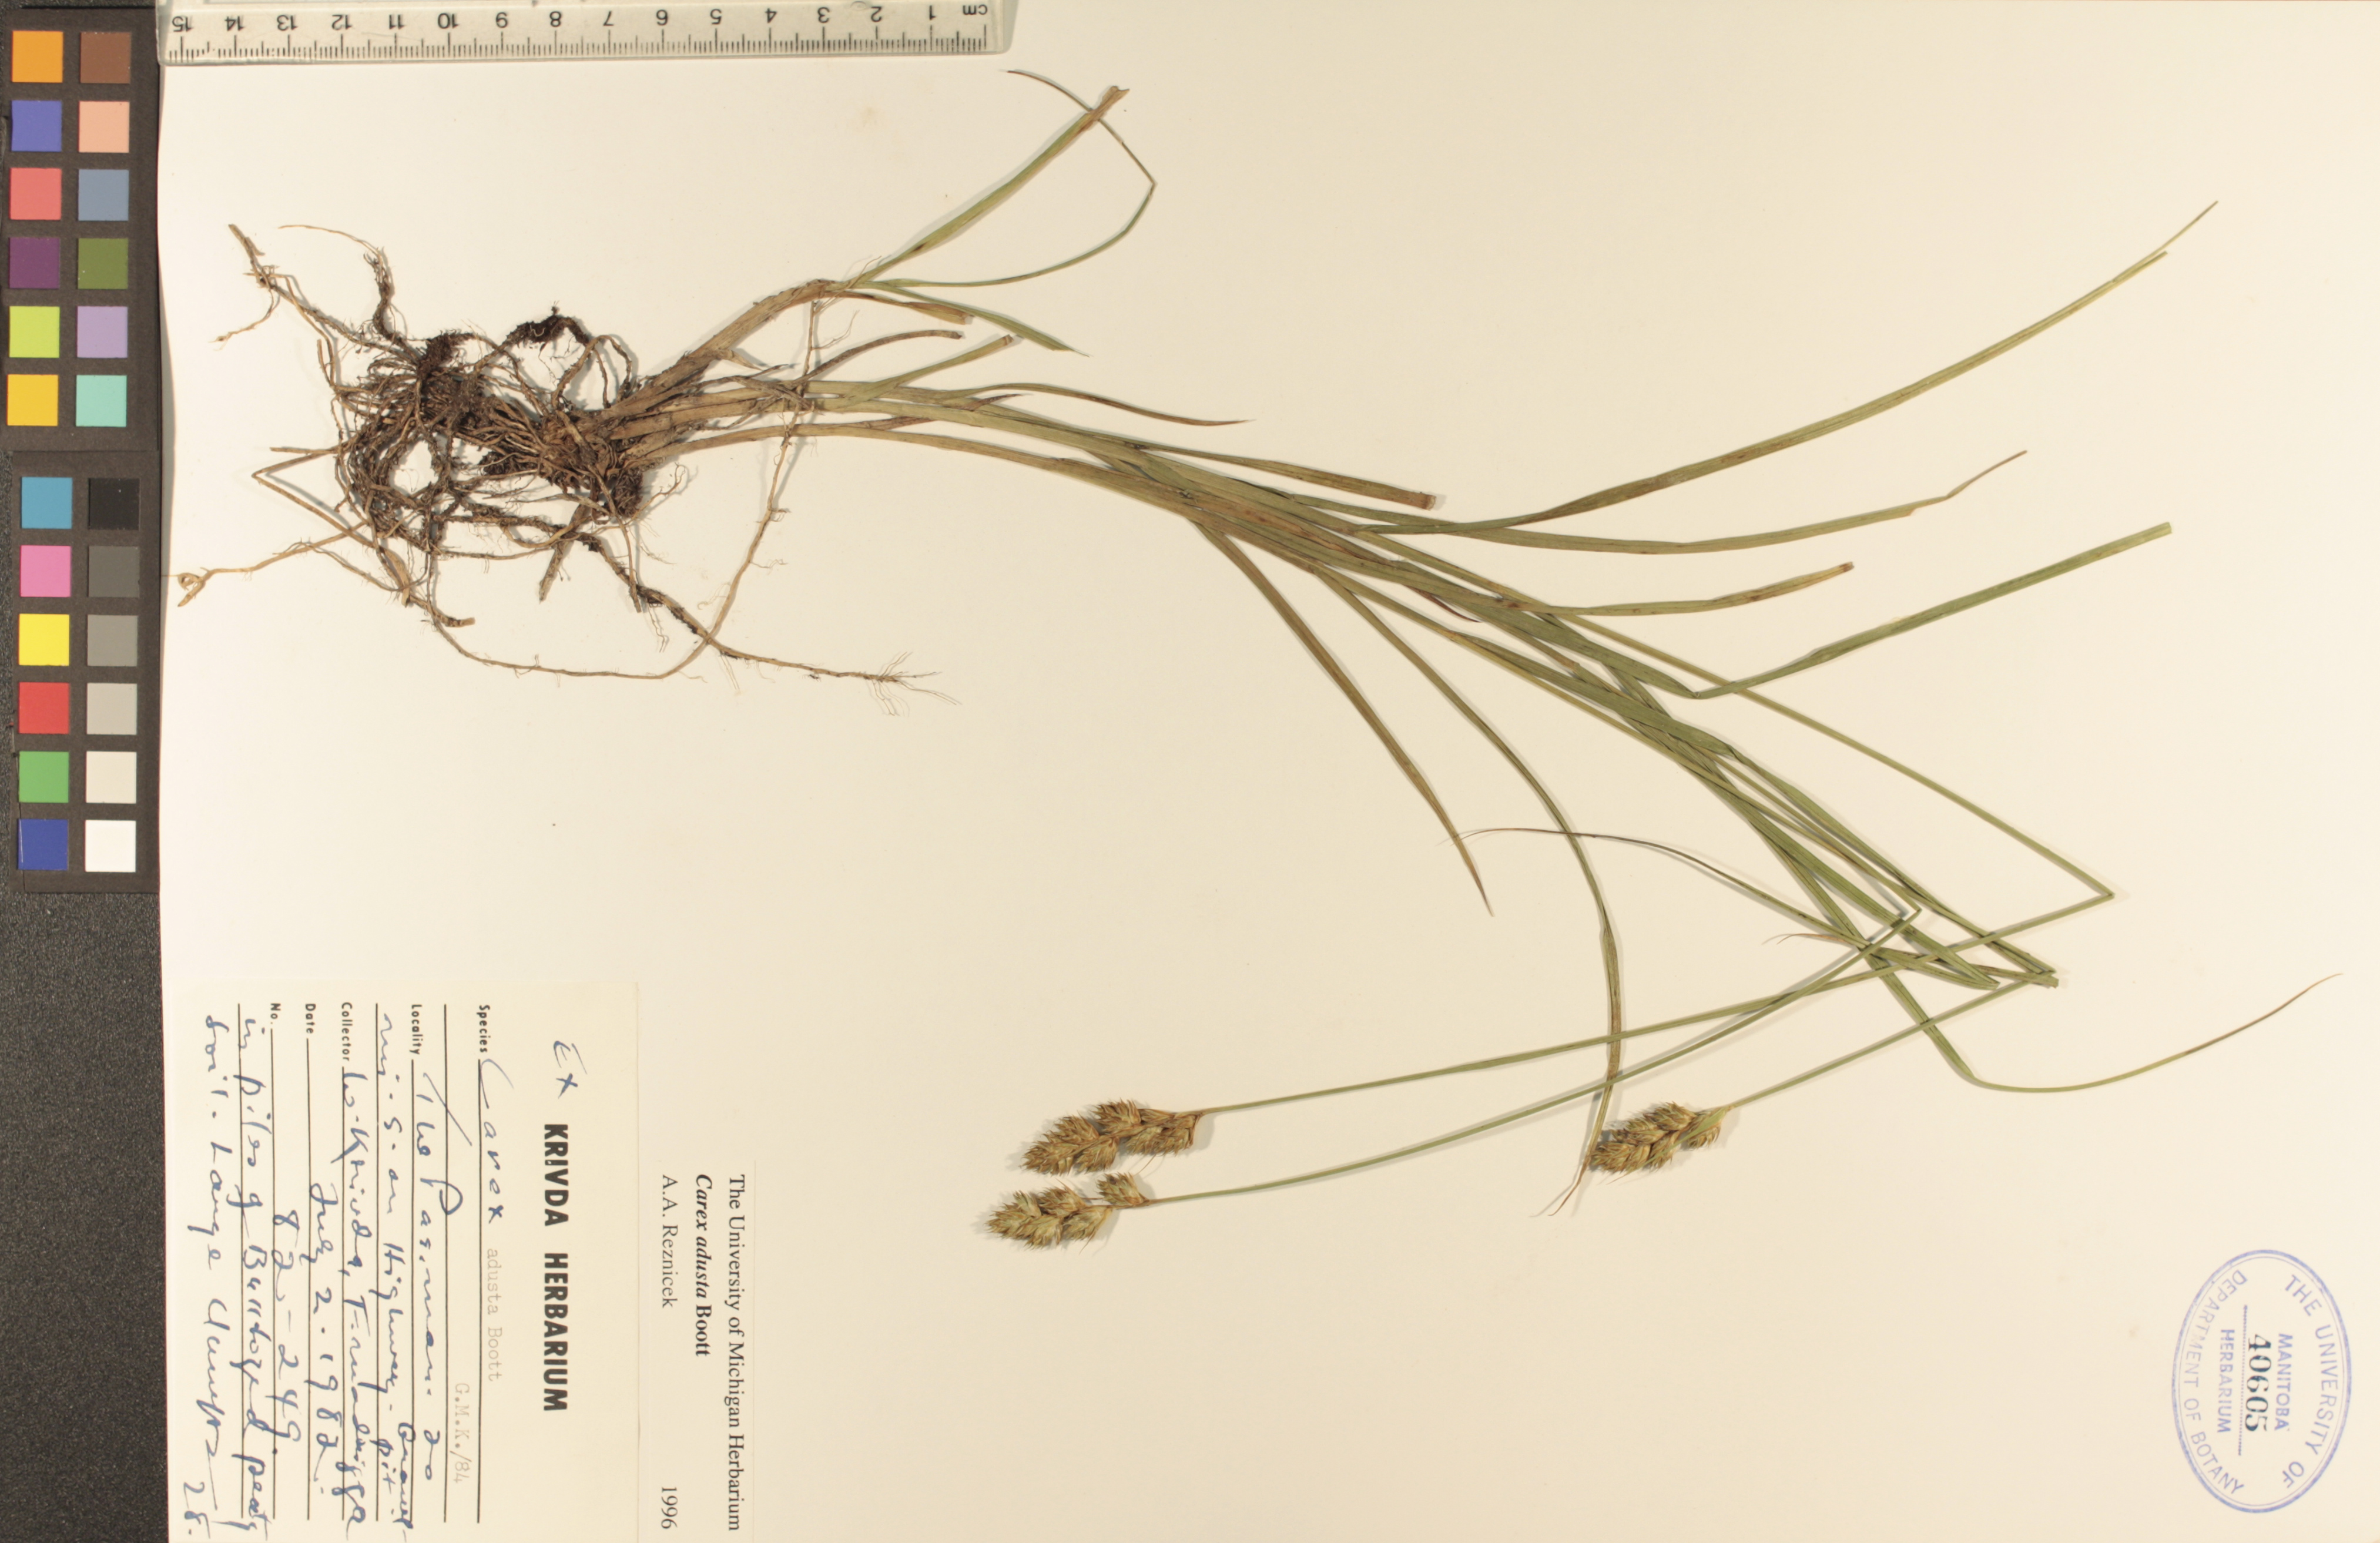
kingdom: Plantae
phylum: Tracheophyta
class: Liliopsida
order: Poales
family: Cyperaceae
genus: Carex
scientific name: Carex adusta
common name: Browned sedge
